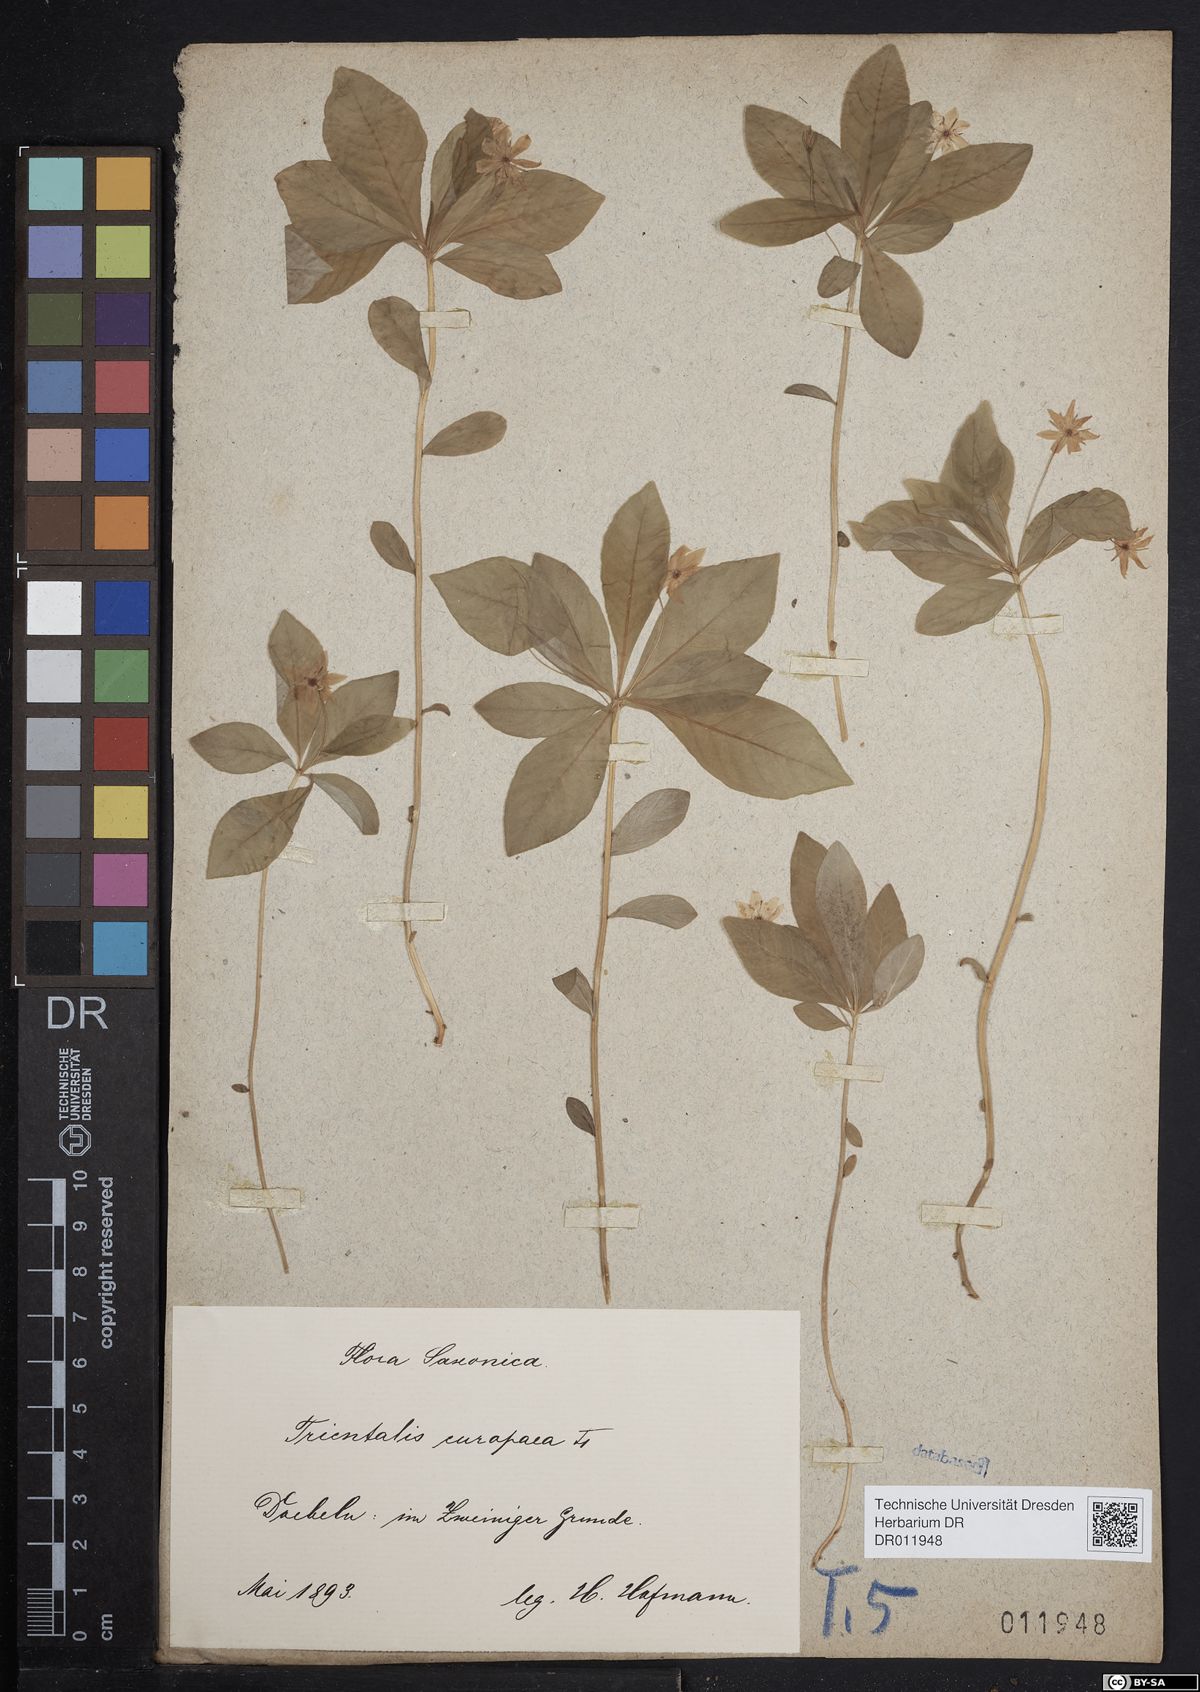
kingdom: Plantae
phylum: Tracheophyta
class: Magnoliopsida
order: Ericales
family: Primulaceae
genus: Lysimachia
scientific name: Lysimachia europaea
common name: Arctic starflower
